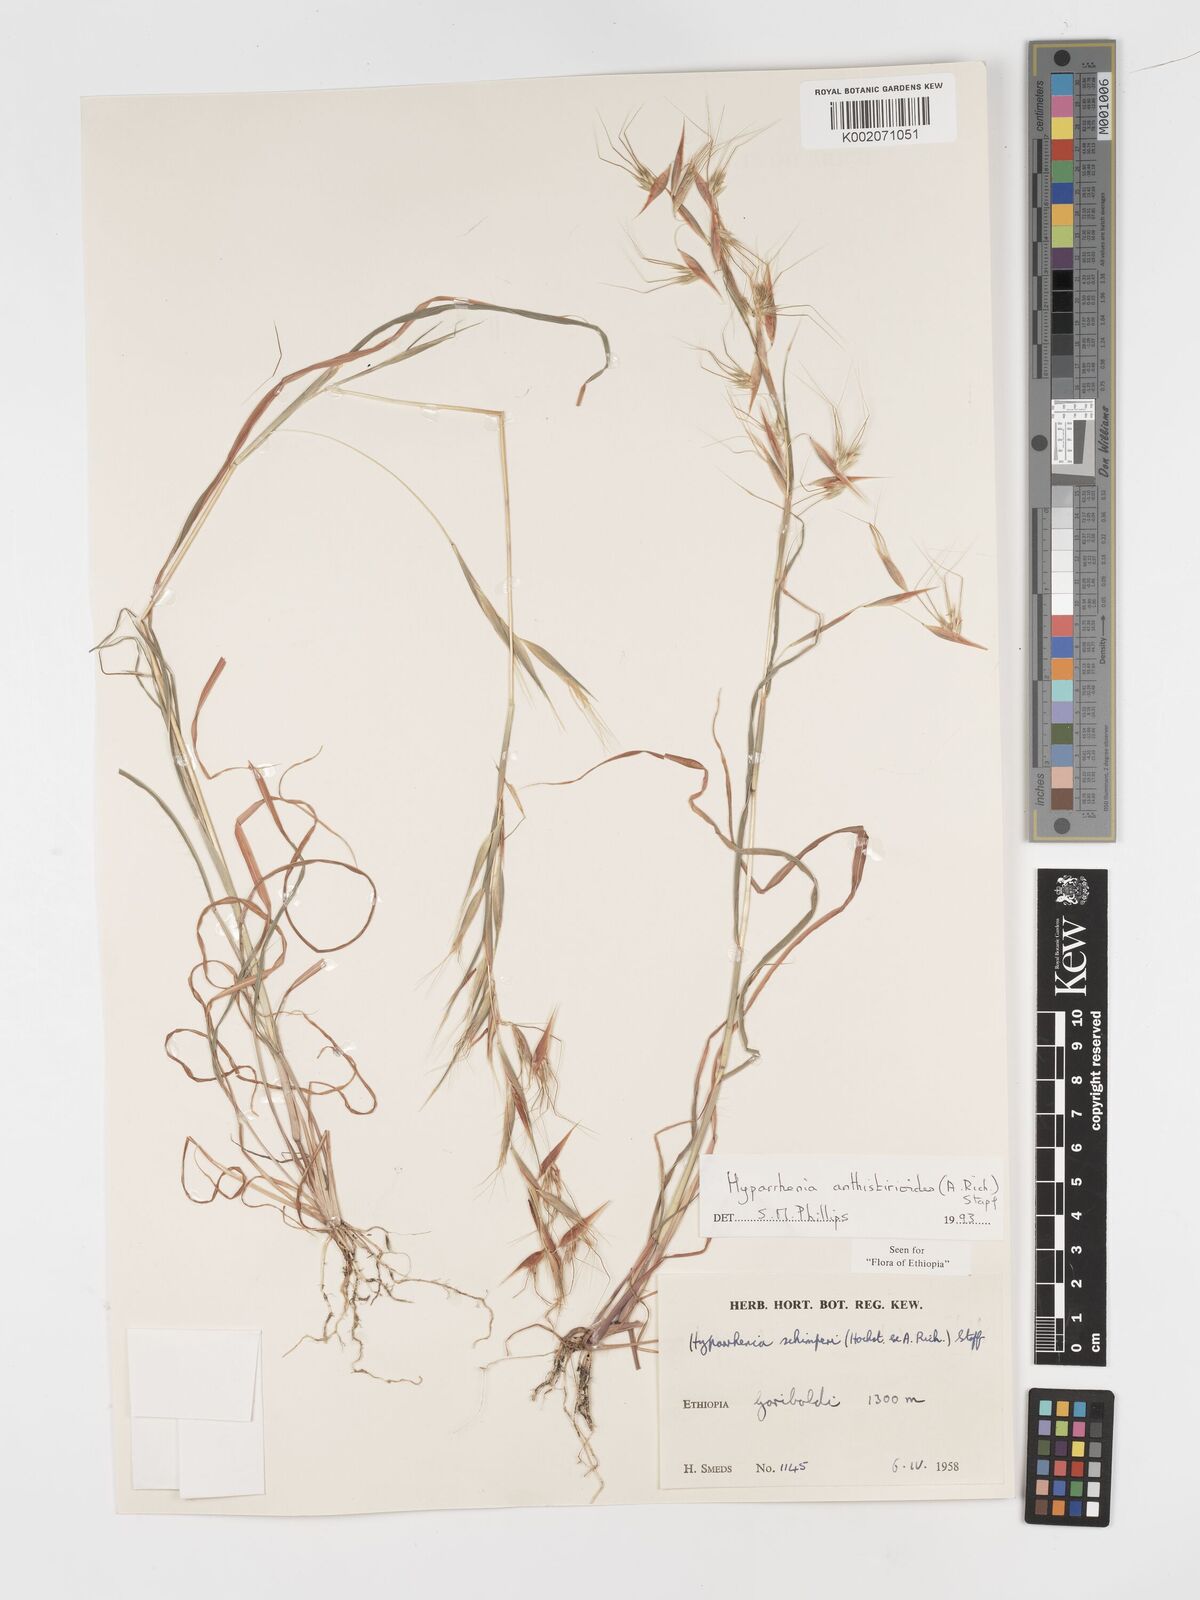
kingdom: Plantae
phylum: Tracheophyta
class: Liliopsida
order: Poales
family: Poaceae
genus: Hyparrhenia
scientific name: Hyparrhenia anthistirioides
